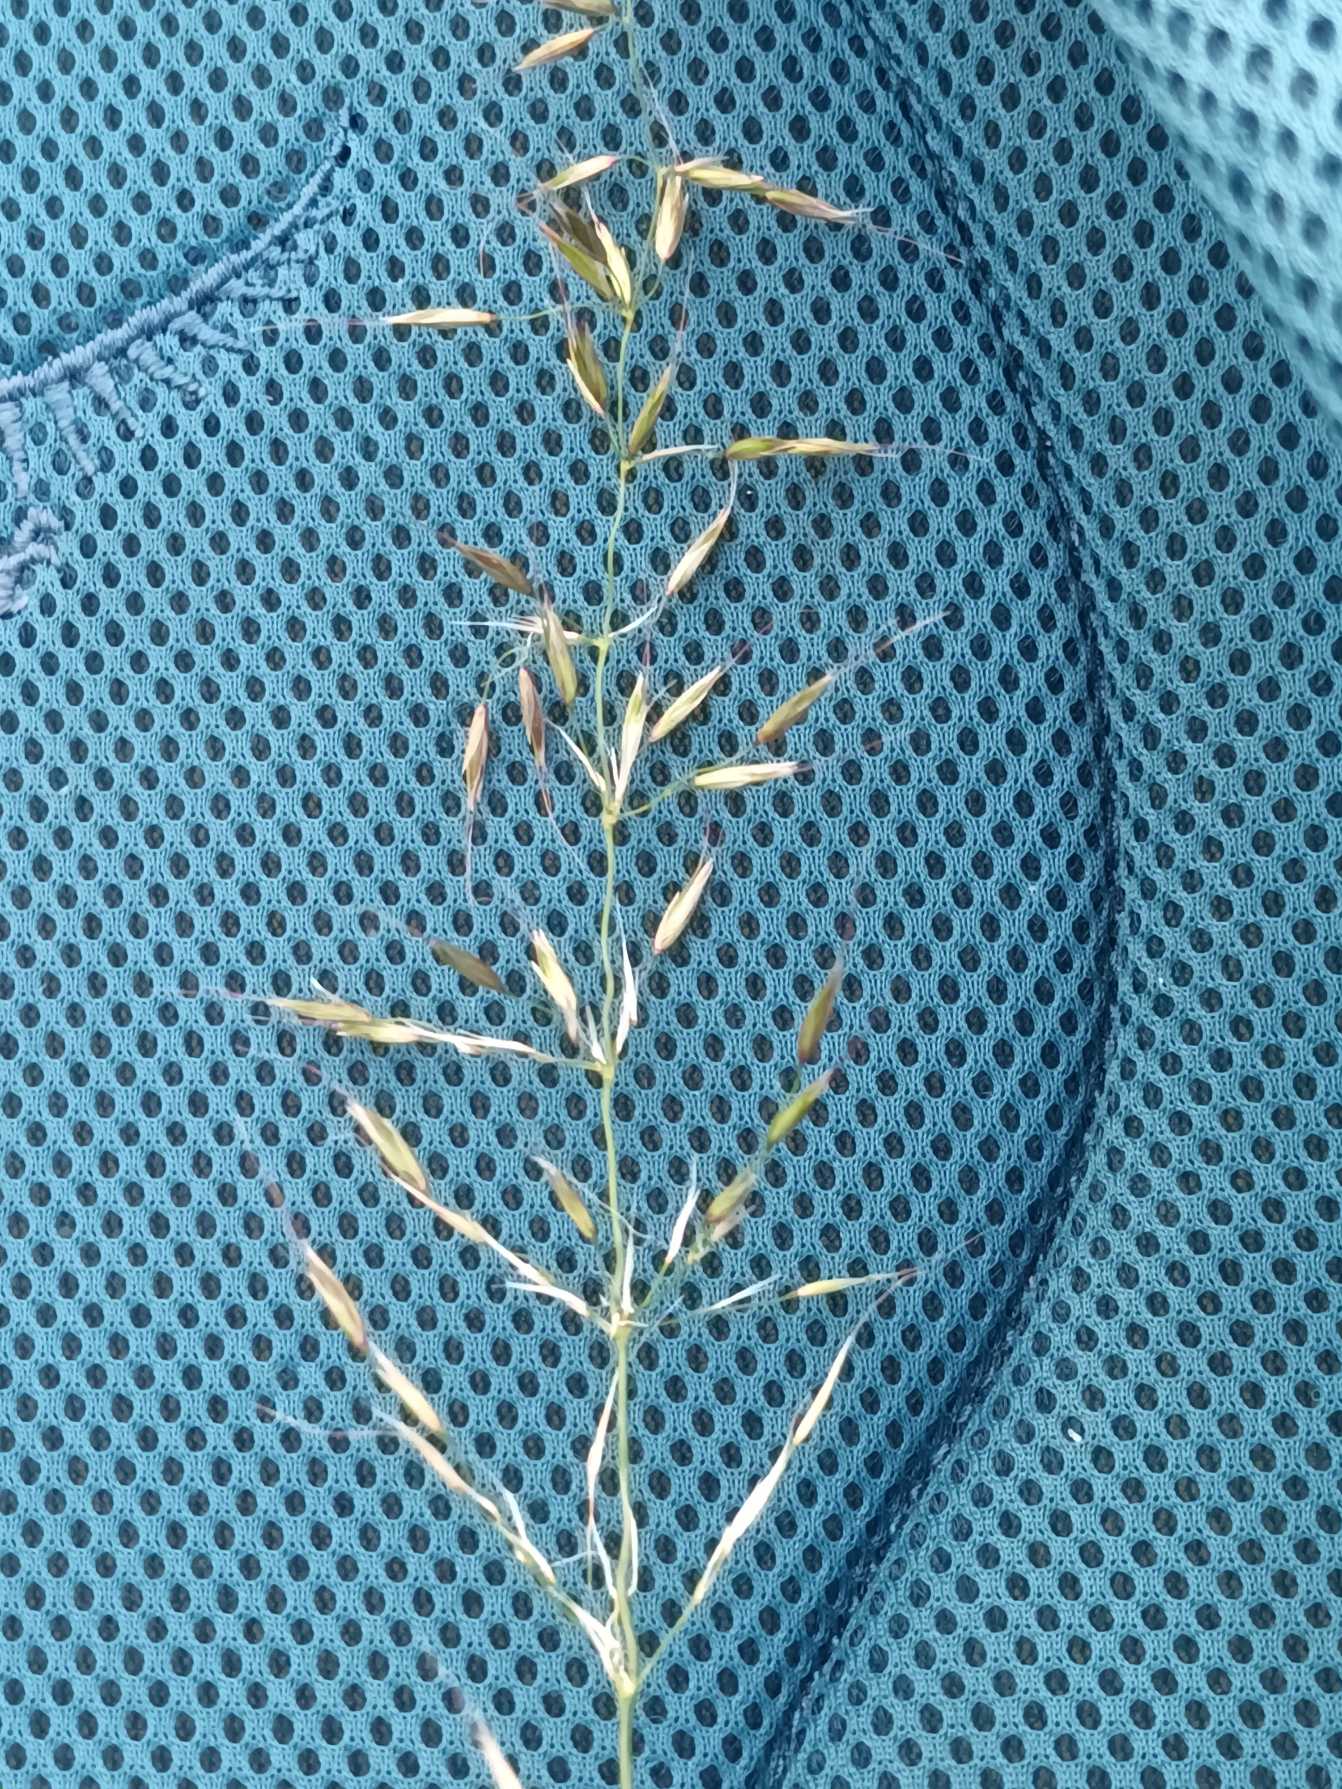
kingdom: Plantae
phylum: Tracheophyta
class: Liliopsida
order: Poales
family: Poaceae
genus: Arrhenatherum
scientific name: Arrhenatherum elatius
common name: Draphavre
